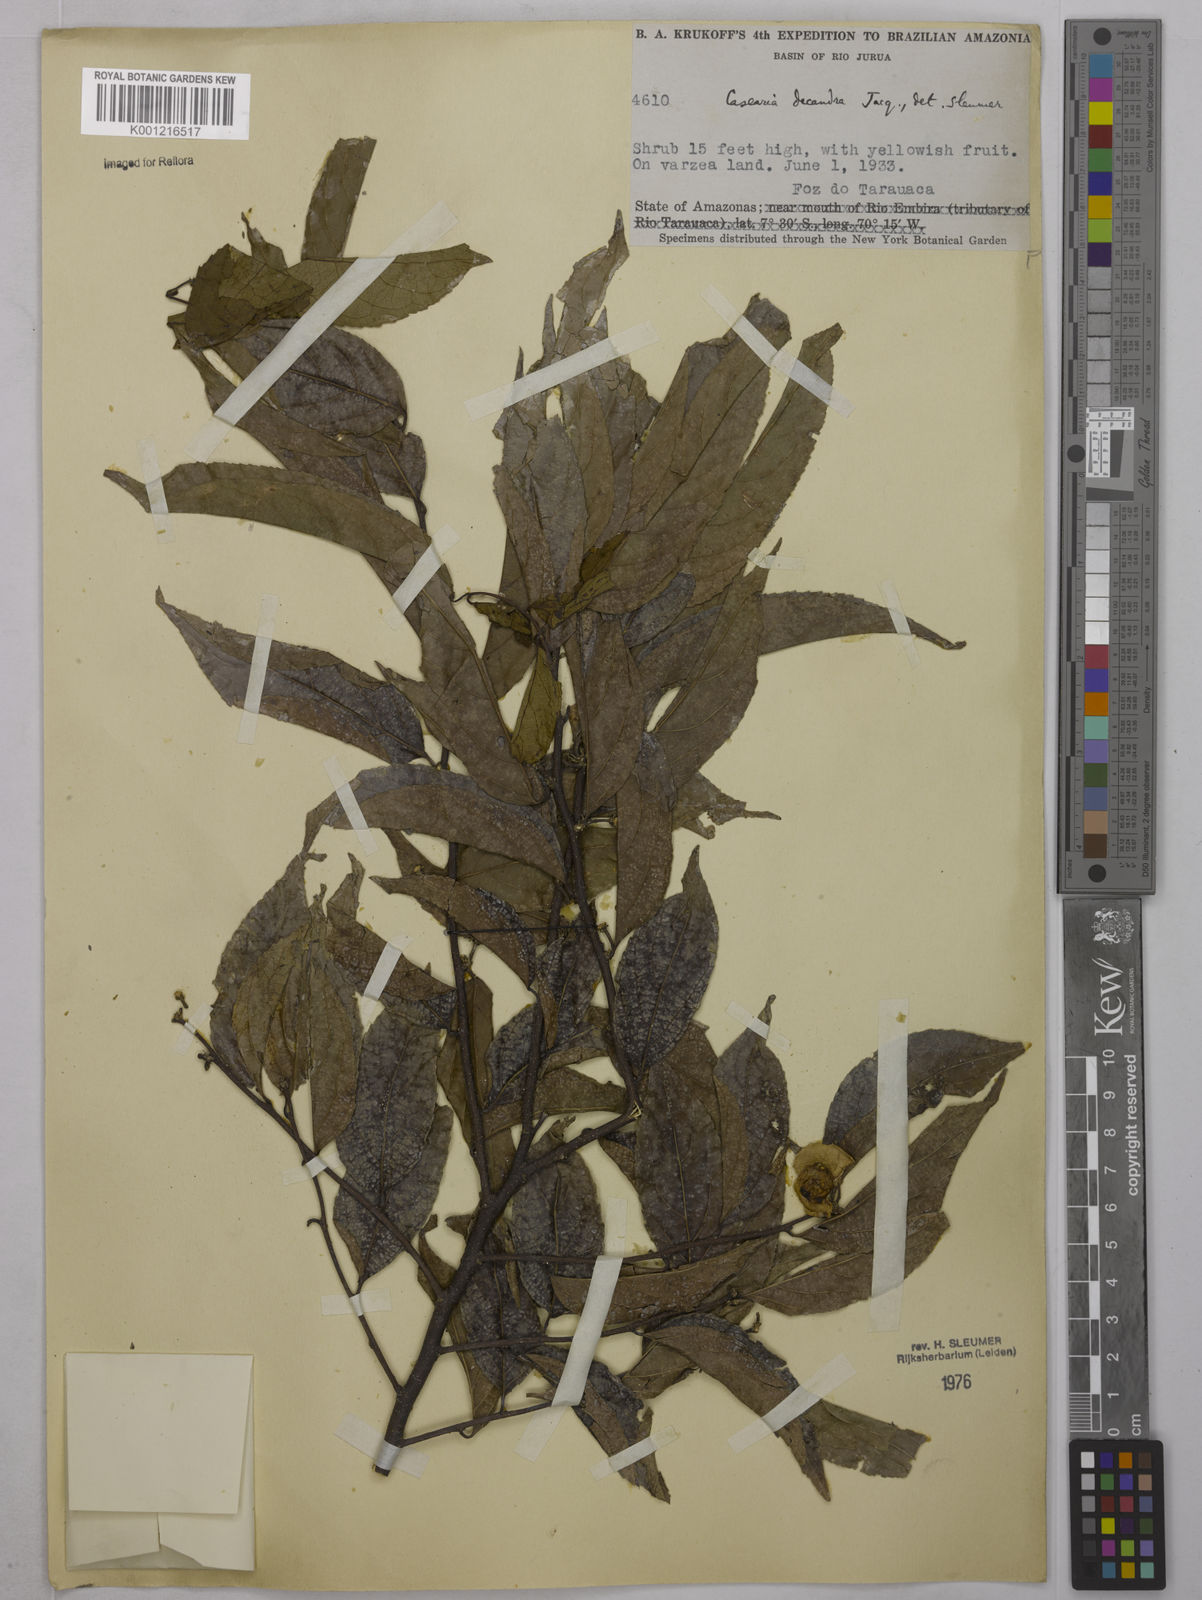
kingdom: Plantae
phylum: Tracheophyta
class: Magnoliopsida
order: Malpighiales
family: Salicaceae
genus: Casearia
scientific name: Casearia decandra
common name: Crack open
